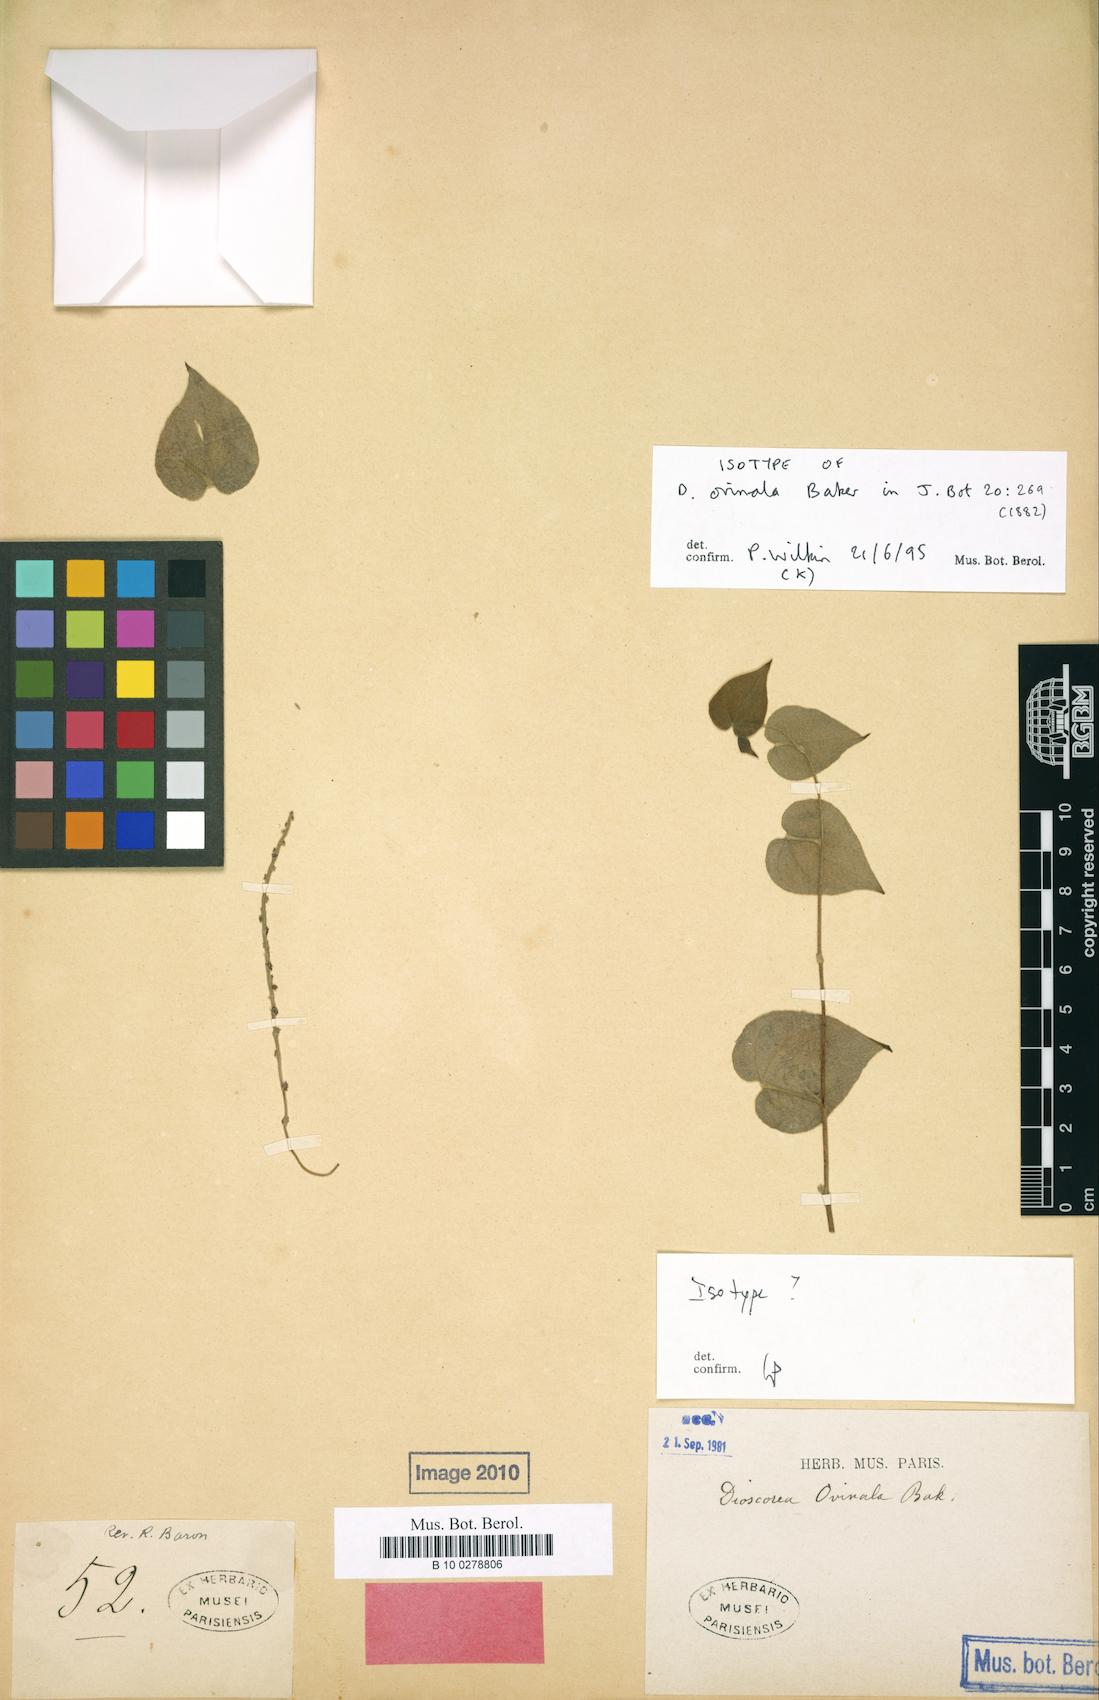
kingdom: Plantae
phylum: Tracheophyta
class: Liliopsida
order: Dioscoreales
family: Dioscoreaceae
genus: Dioscorea
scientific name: Dioscorea ovinala
